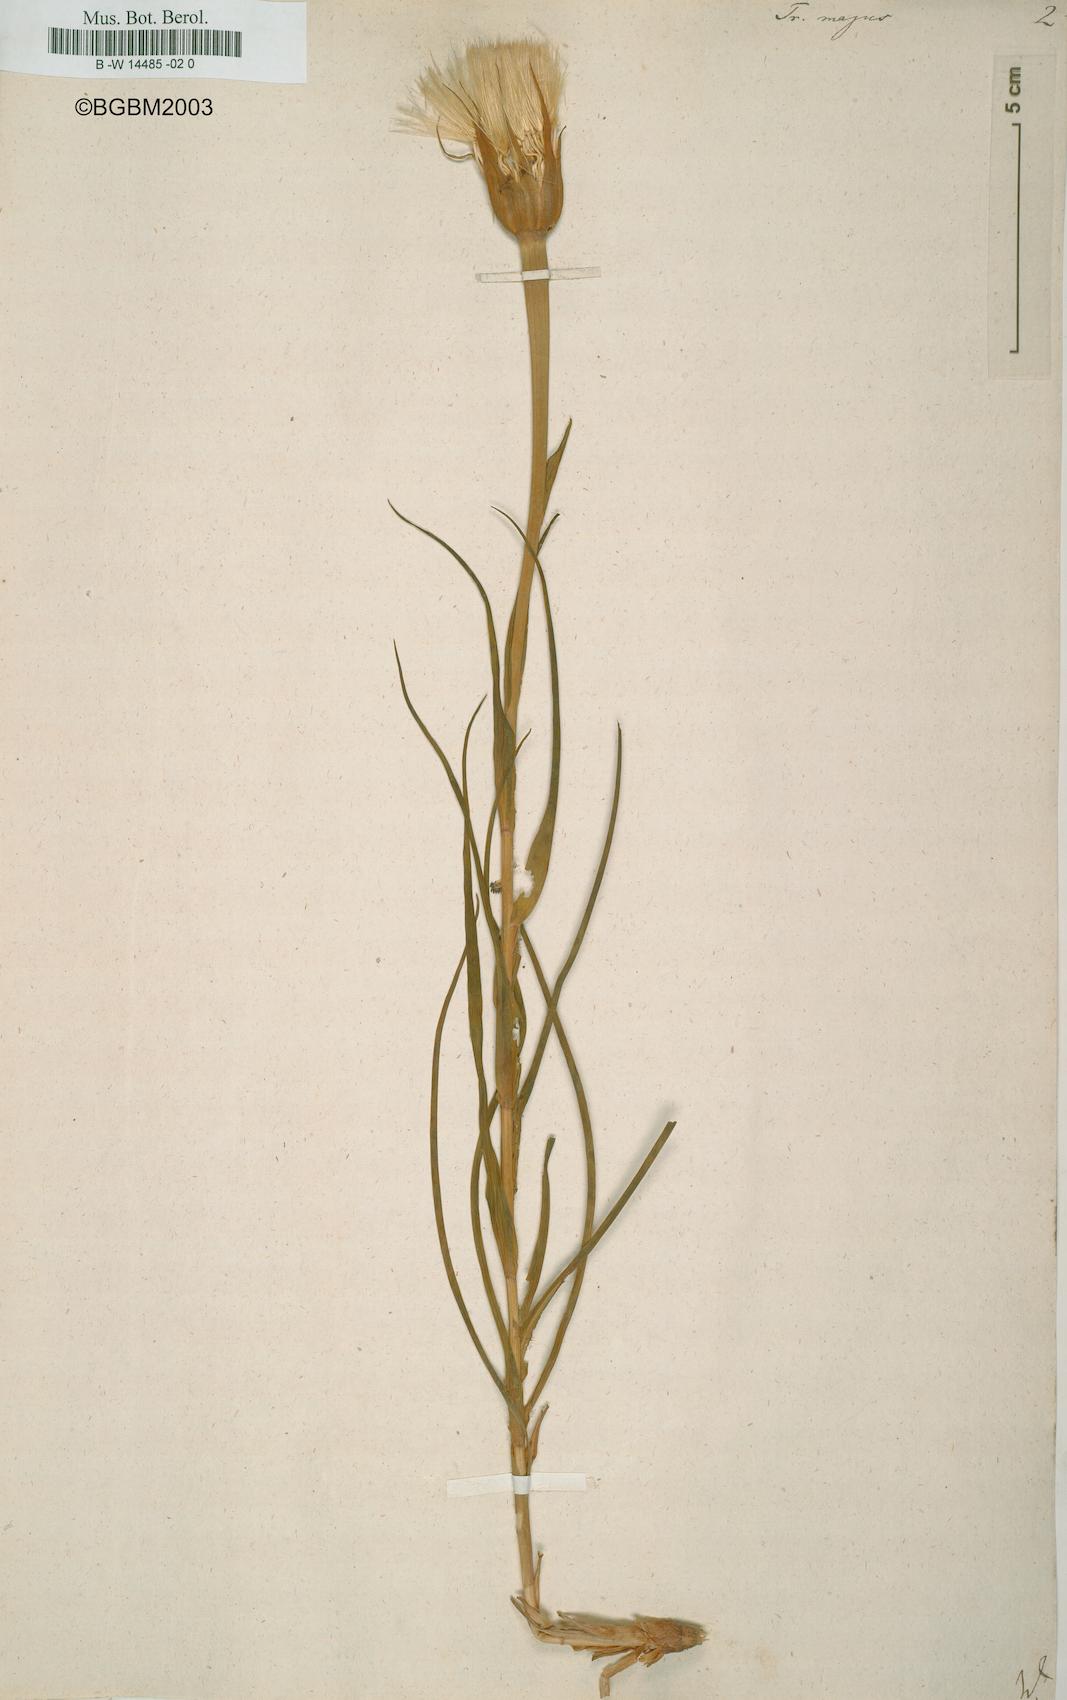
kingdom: Plantae
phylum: Tracheophyta
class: Magnoliopsida
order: Asterales
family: Asteraceae
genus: Tragopogon
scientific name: Tragopogon dubius
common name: Yellow salsify
